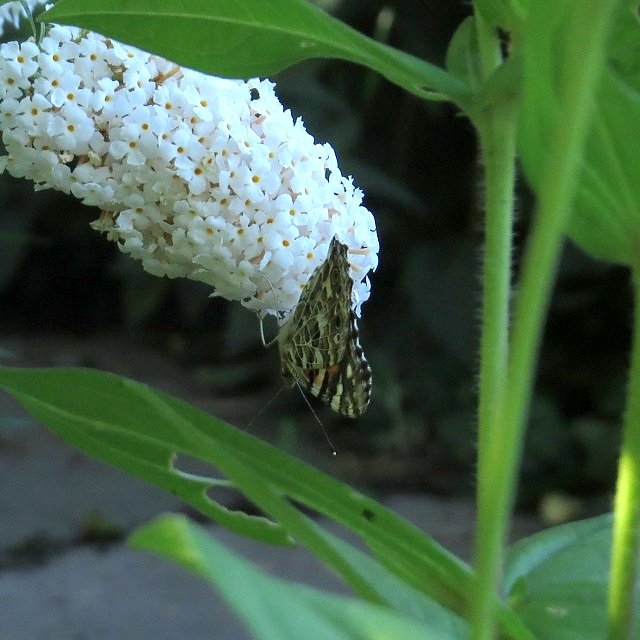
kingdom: Animalia
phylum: Arthropoda
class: Insecta
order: Lepidoptera
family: Nymphalidae
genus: Vanessa
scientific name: Vanessa cardui
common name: Painted Lady
